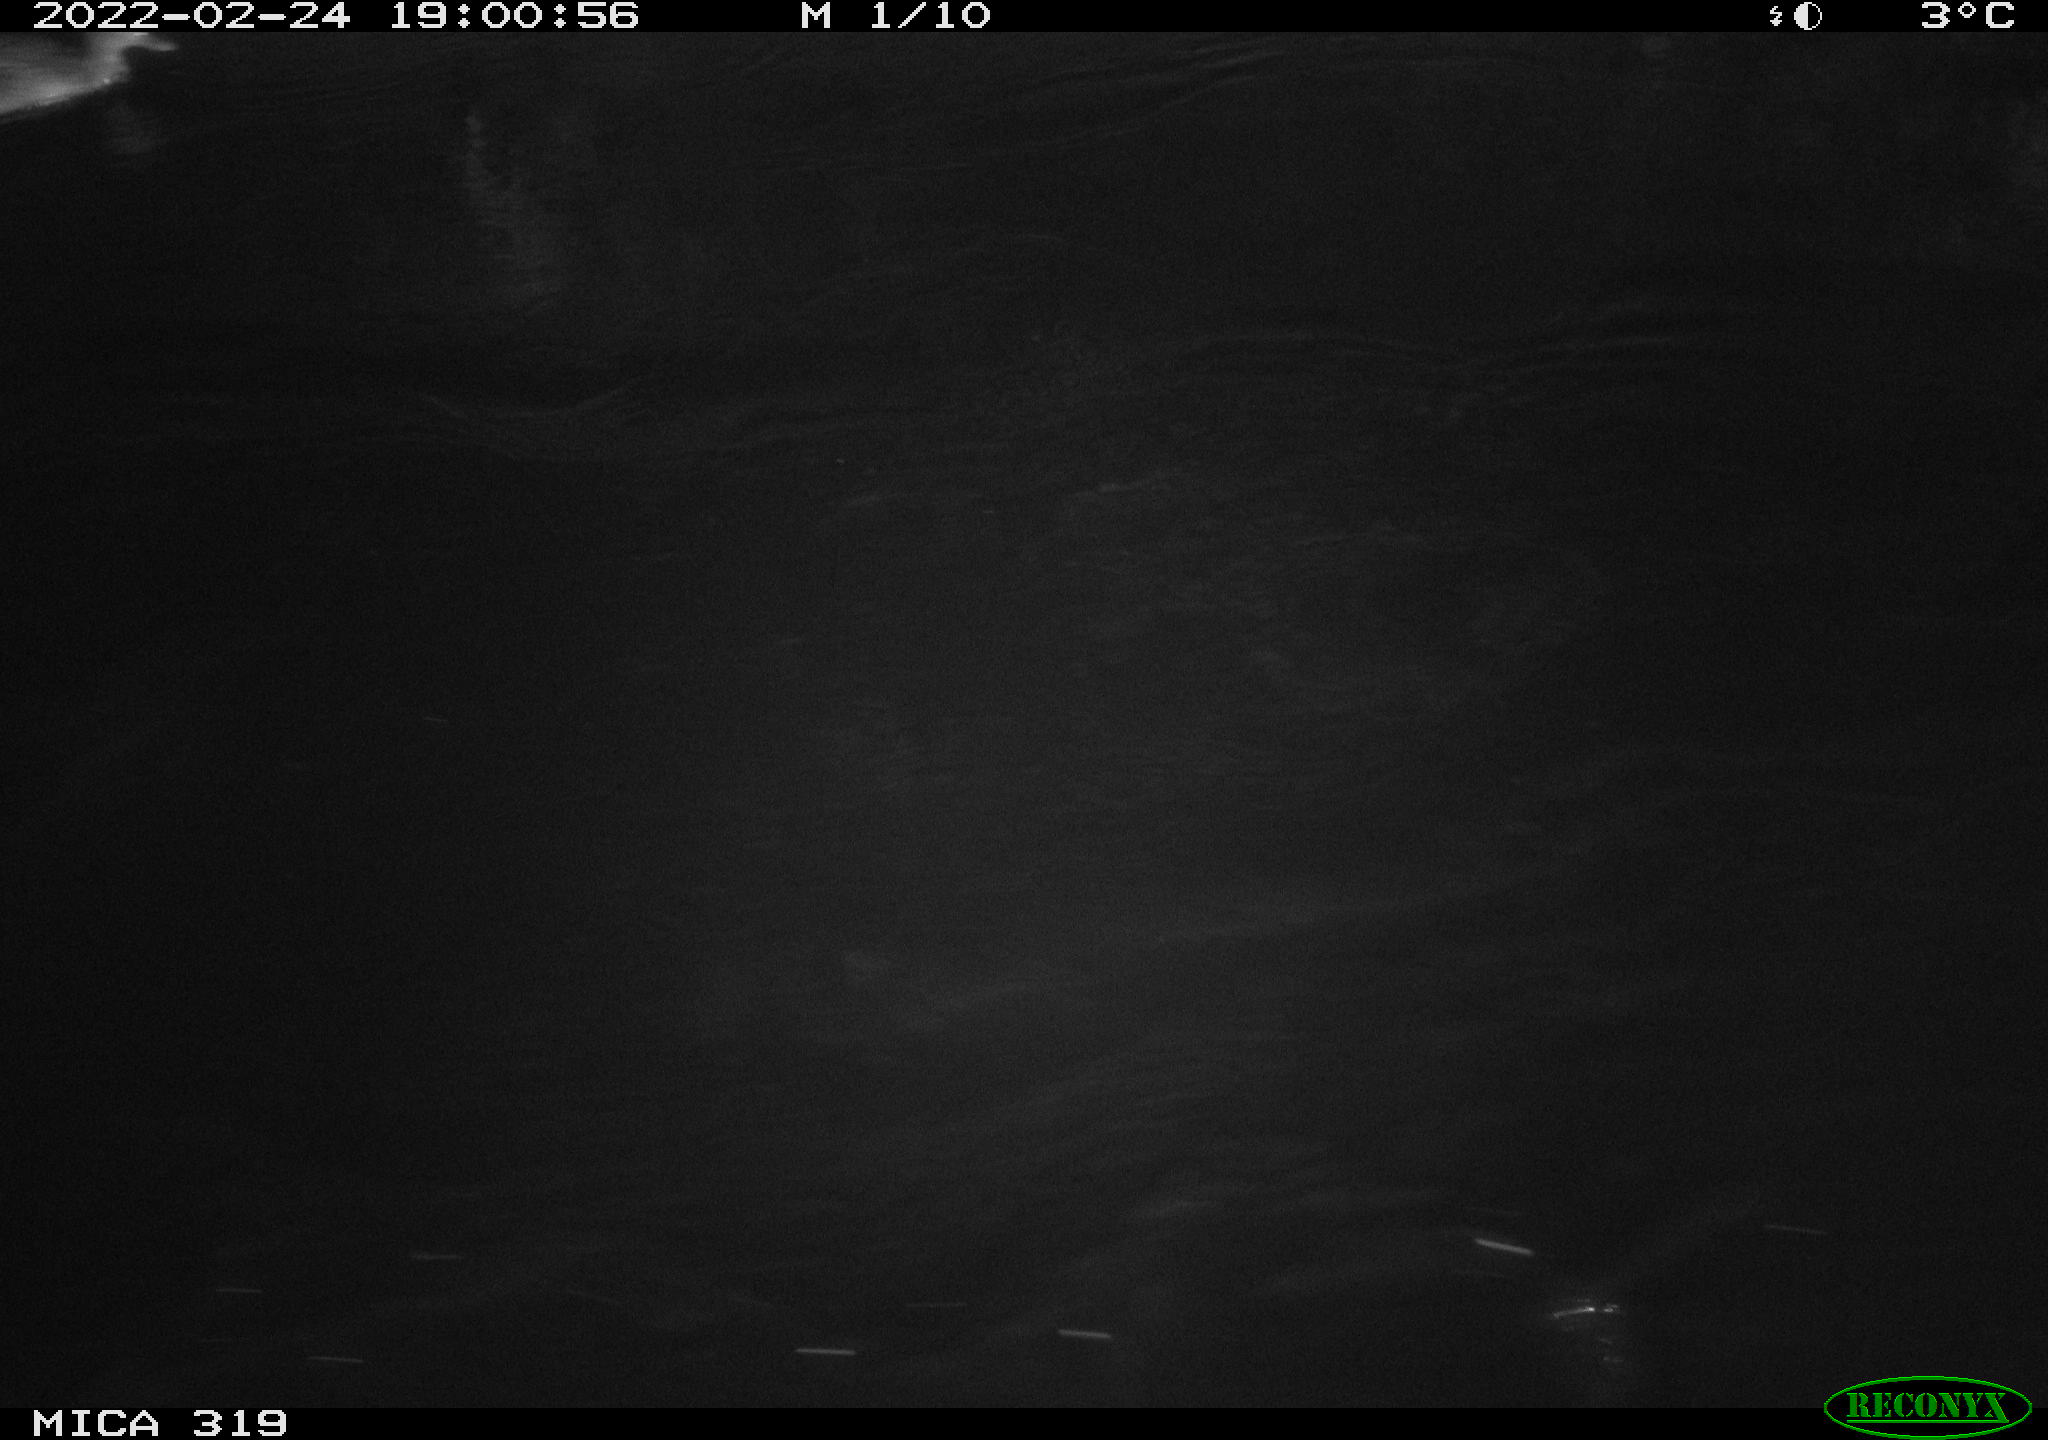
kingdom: Animalia
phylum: Chordata
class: Aves
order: Anseriformes
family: Anatidae
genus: Anas
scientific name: Anas platyrhynchos
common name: Mallard
